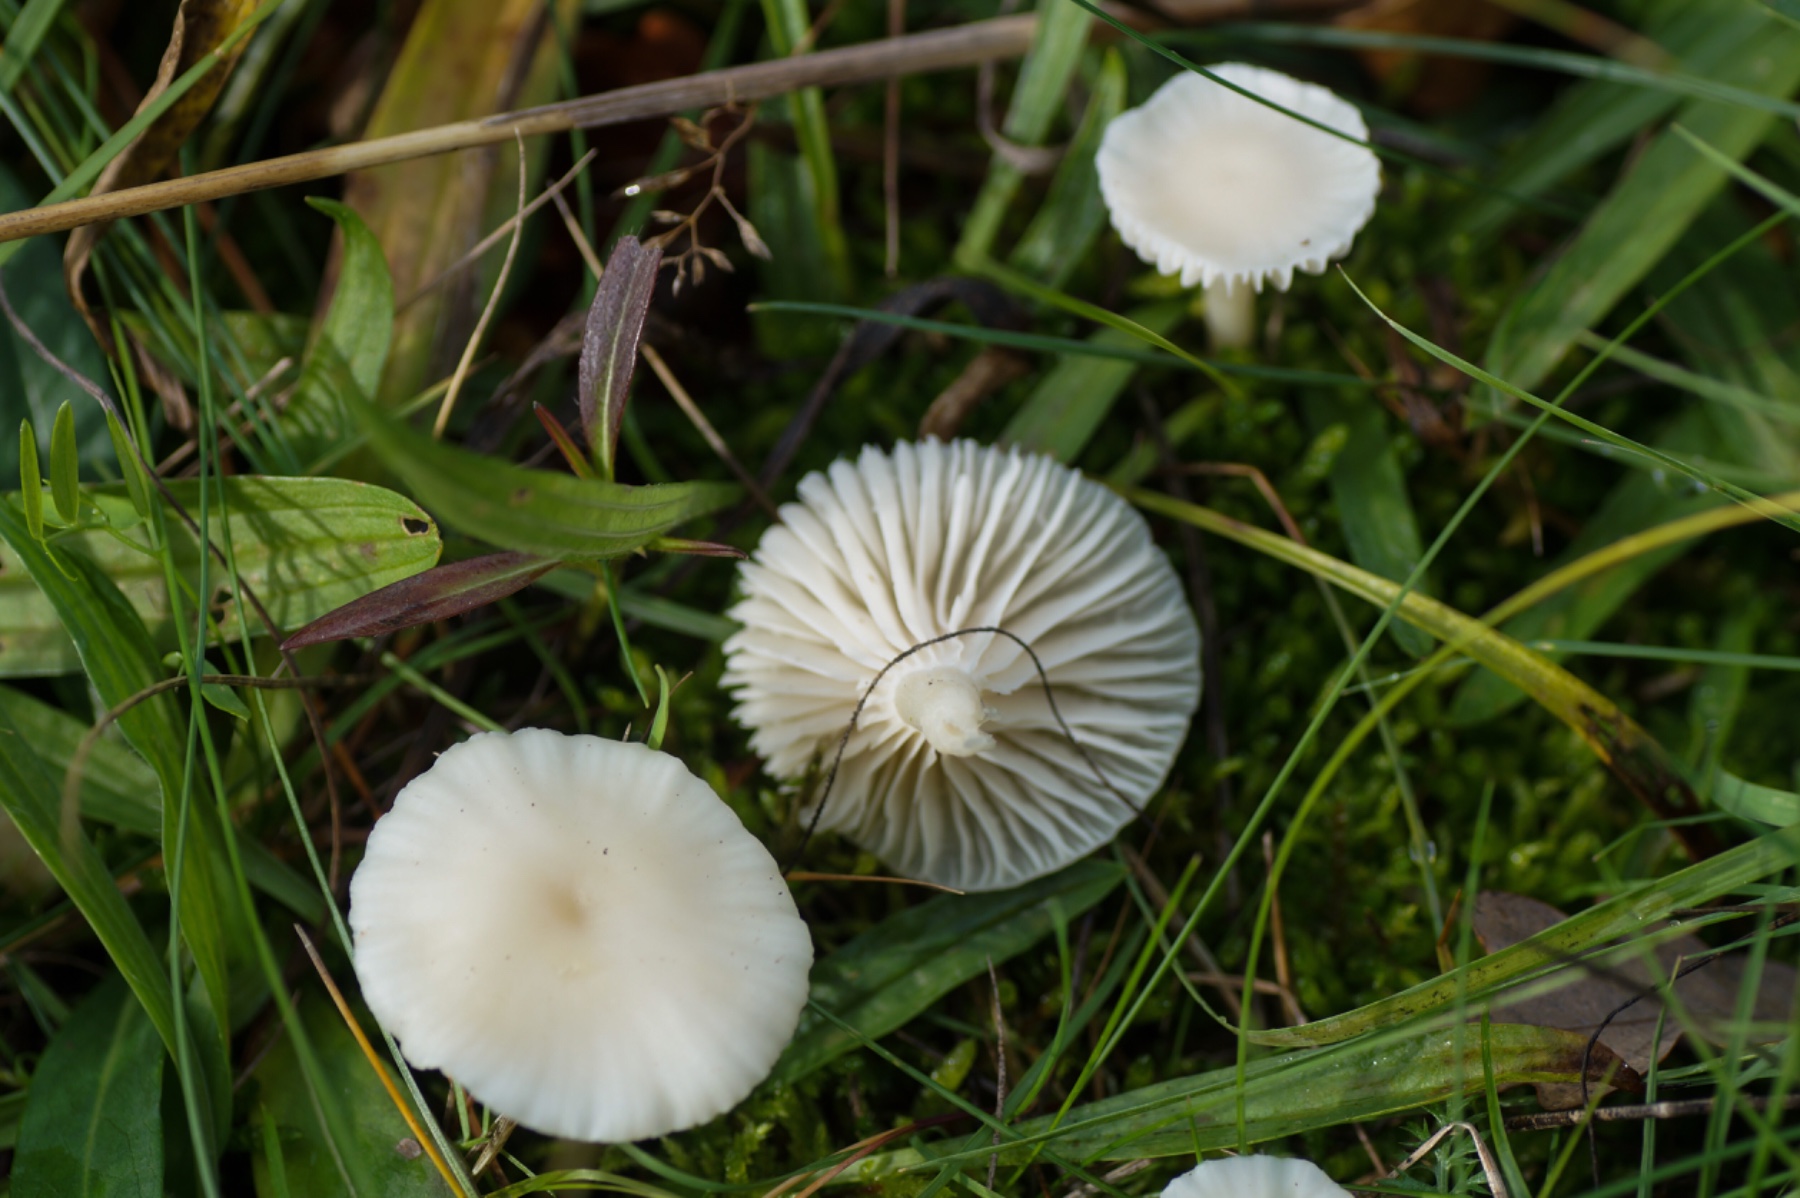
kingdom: Fungi
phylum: Basidiomycota
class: Agaricomycetes
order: Agaricales
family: Hygrophoraceae
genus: Cuphophyllus
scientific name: Cuphophyllus virgineus
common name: snehvid vokshat
